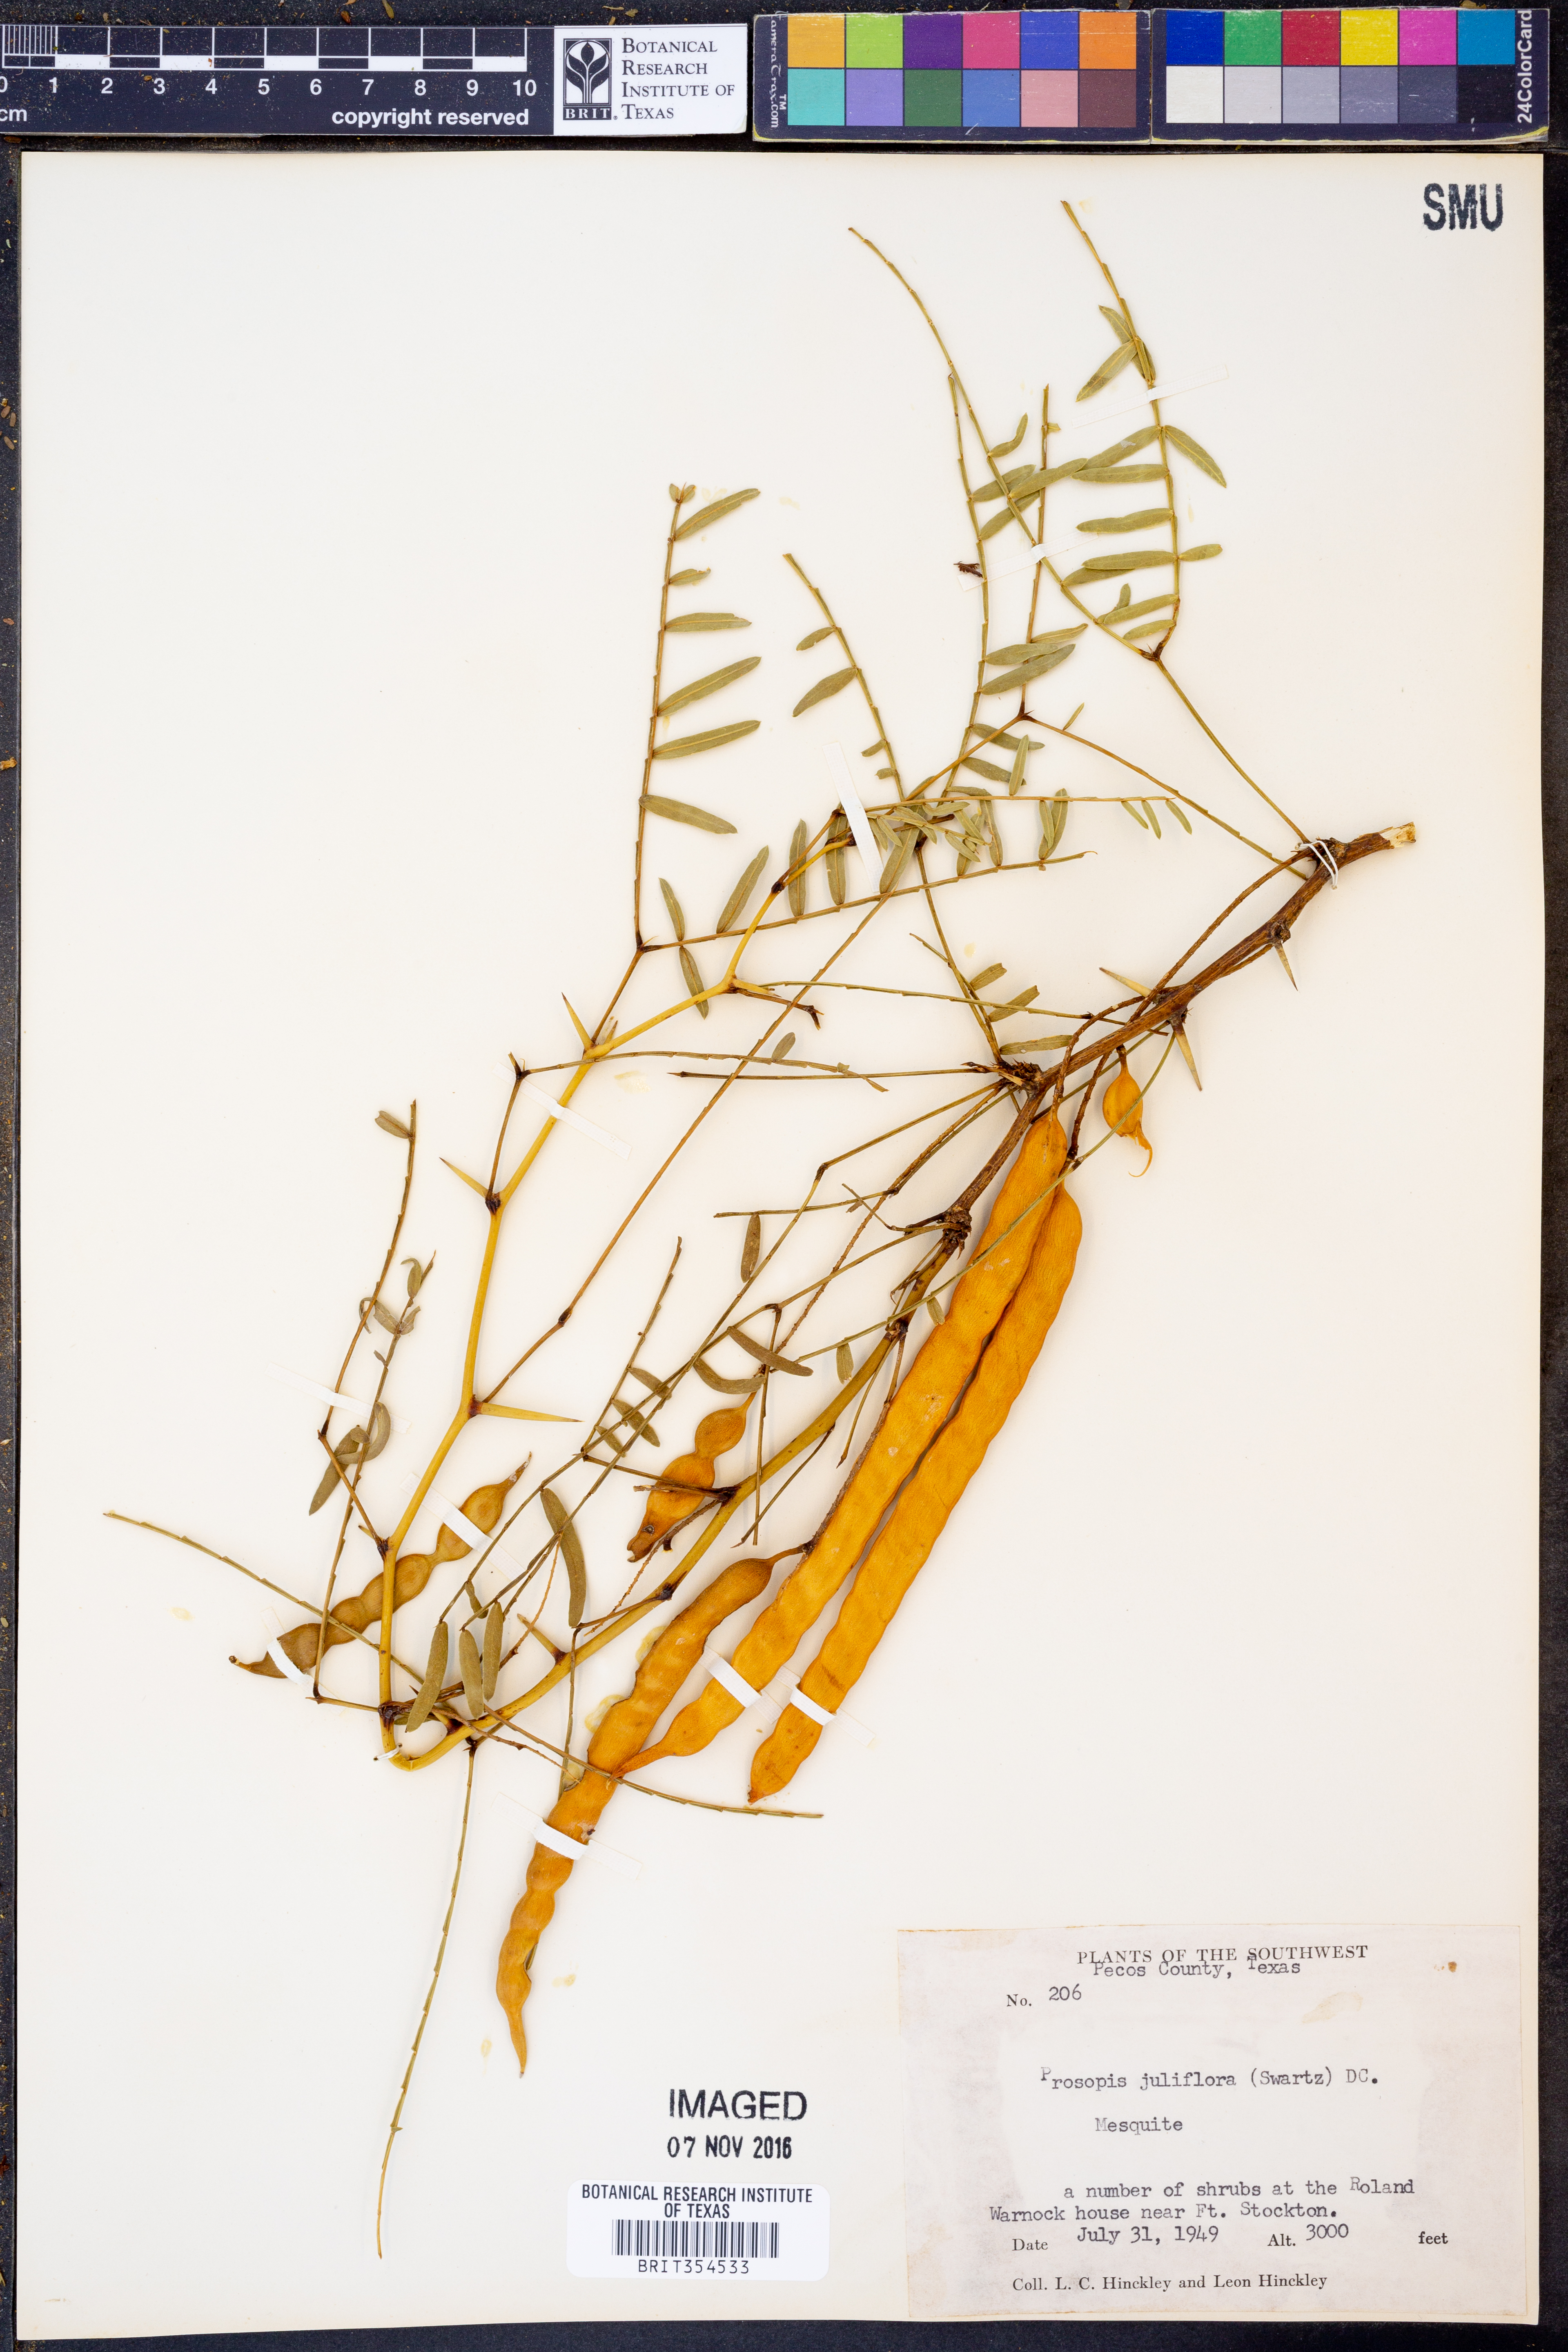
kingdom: Plantae
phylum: Tracheophyta
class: Magnoliopsida
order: Fabales
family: Fabaceae
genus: Prosopis
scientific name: Prosopis juliflora
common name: Mesquite
